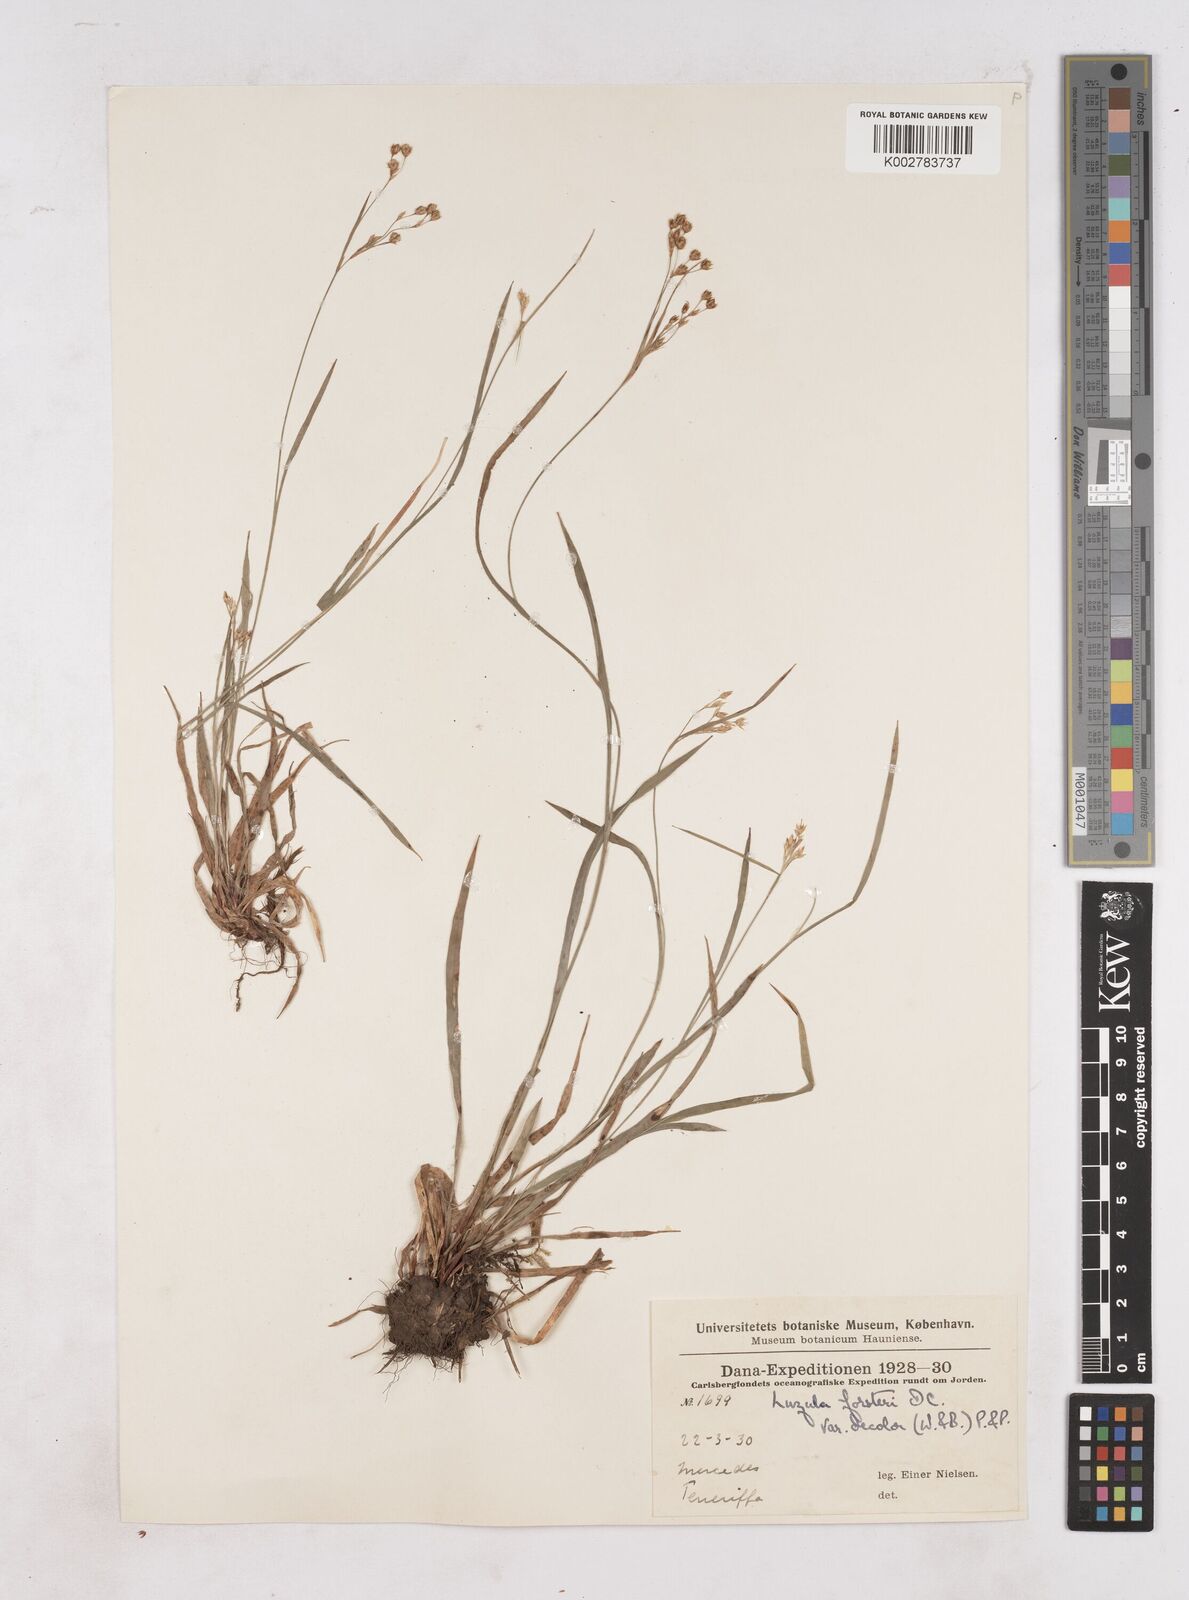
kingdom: Plantae
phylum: Tracheophyta
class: Liliopsida
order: Poales
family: Juncaceae
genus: Luzula
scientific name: Luzula forsteri
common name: Southern wood-rush
